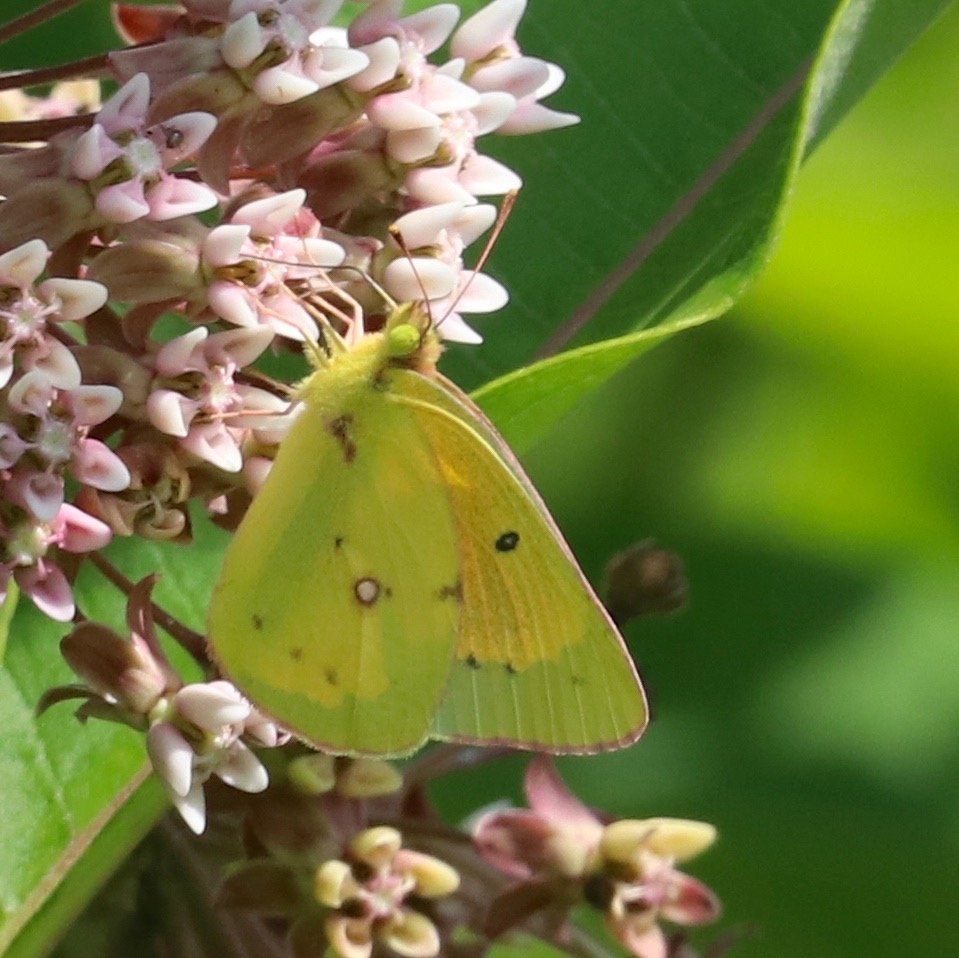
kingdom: Animalia
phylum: Arthropoda
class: Insecta
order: Lepidoptera
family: Pieridae
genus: Colias
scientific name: Colias eurytheme
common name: Orange Sulphur
